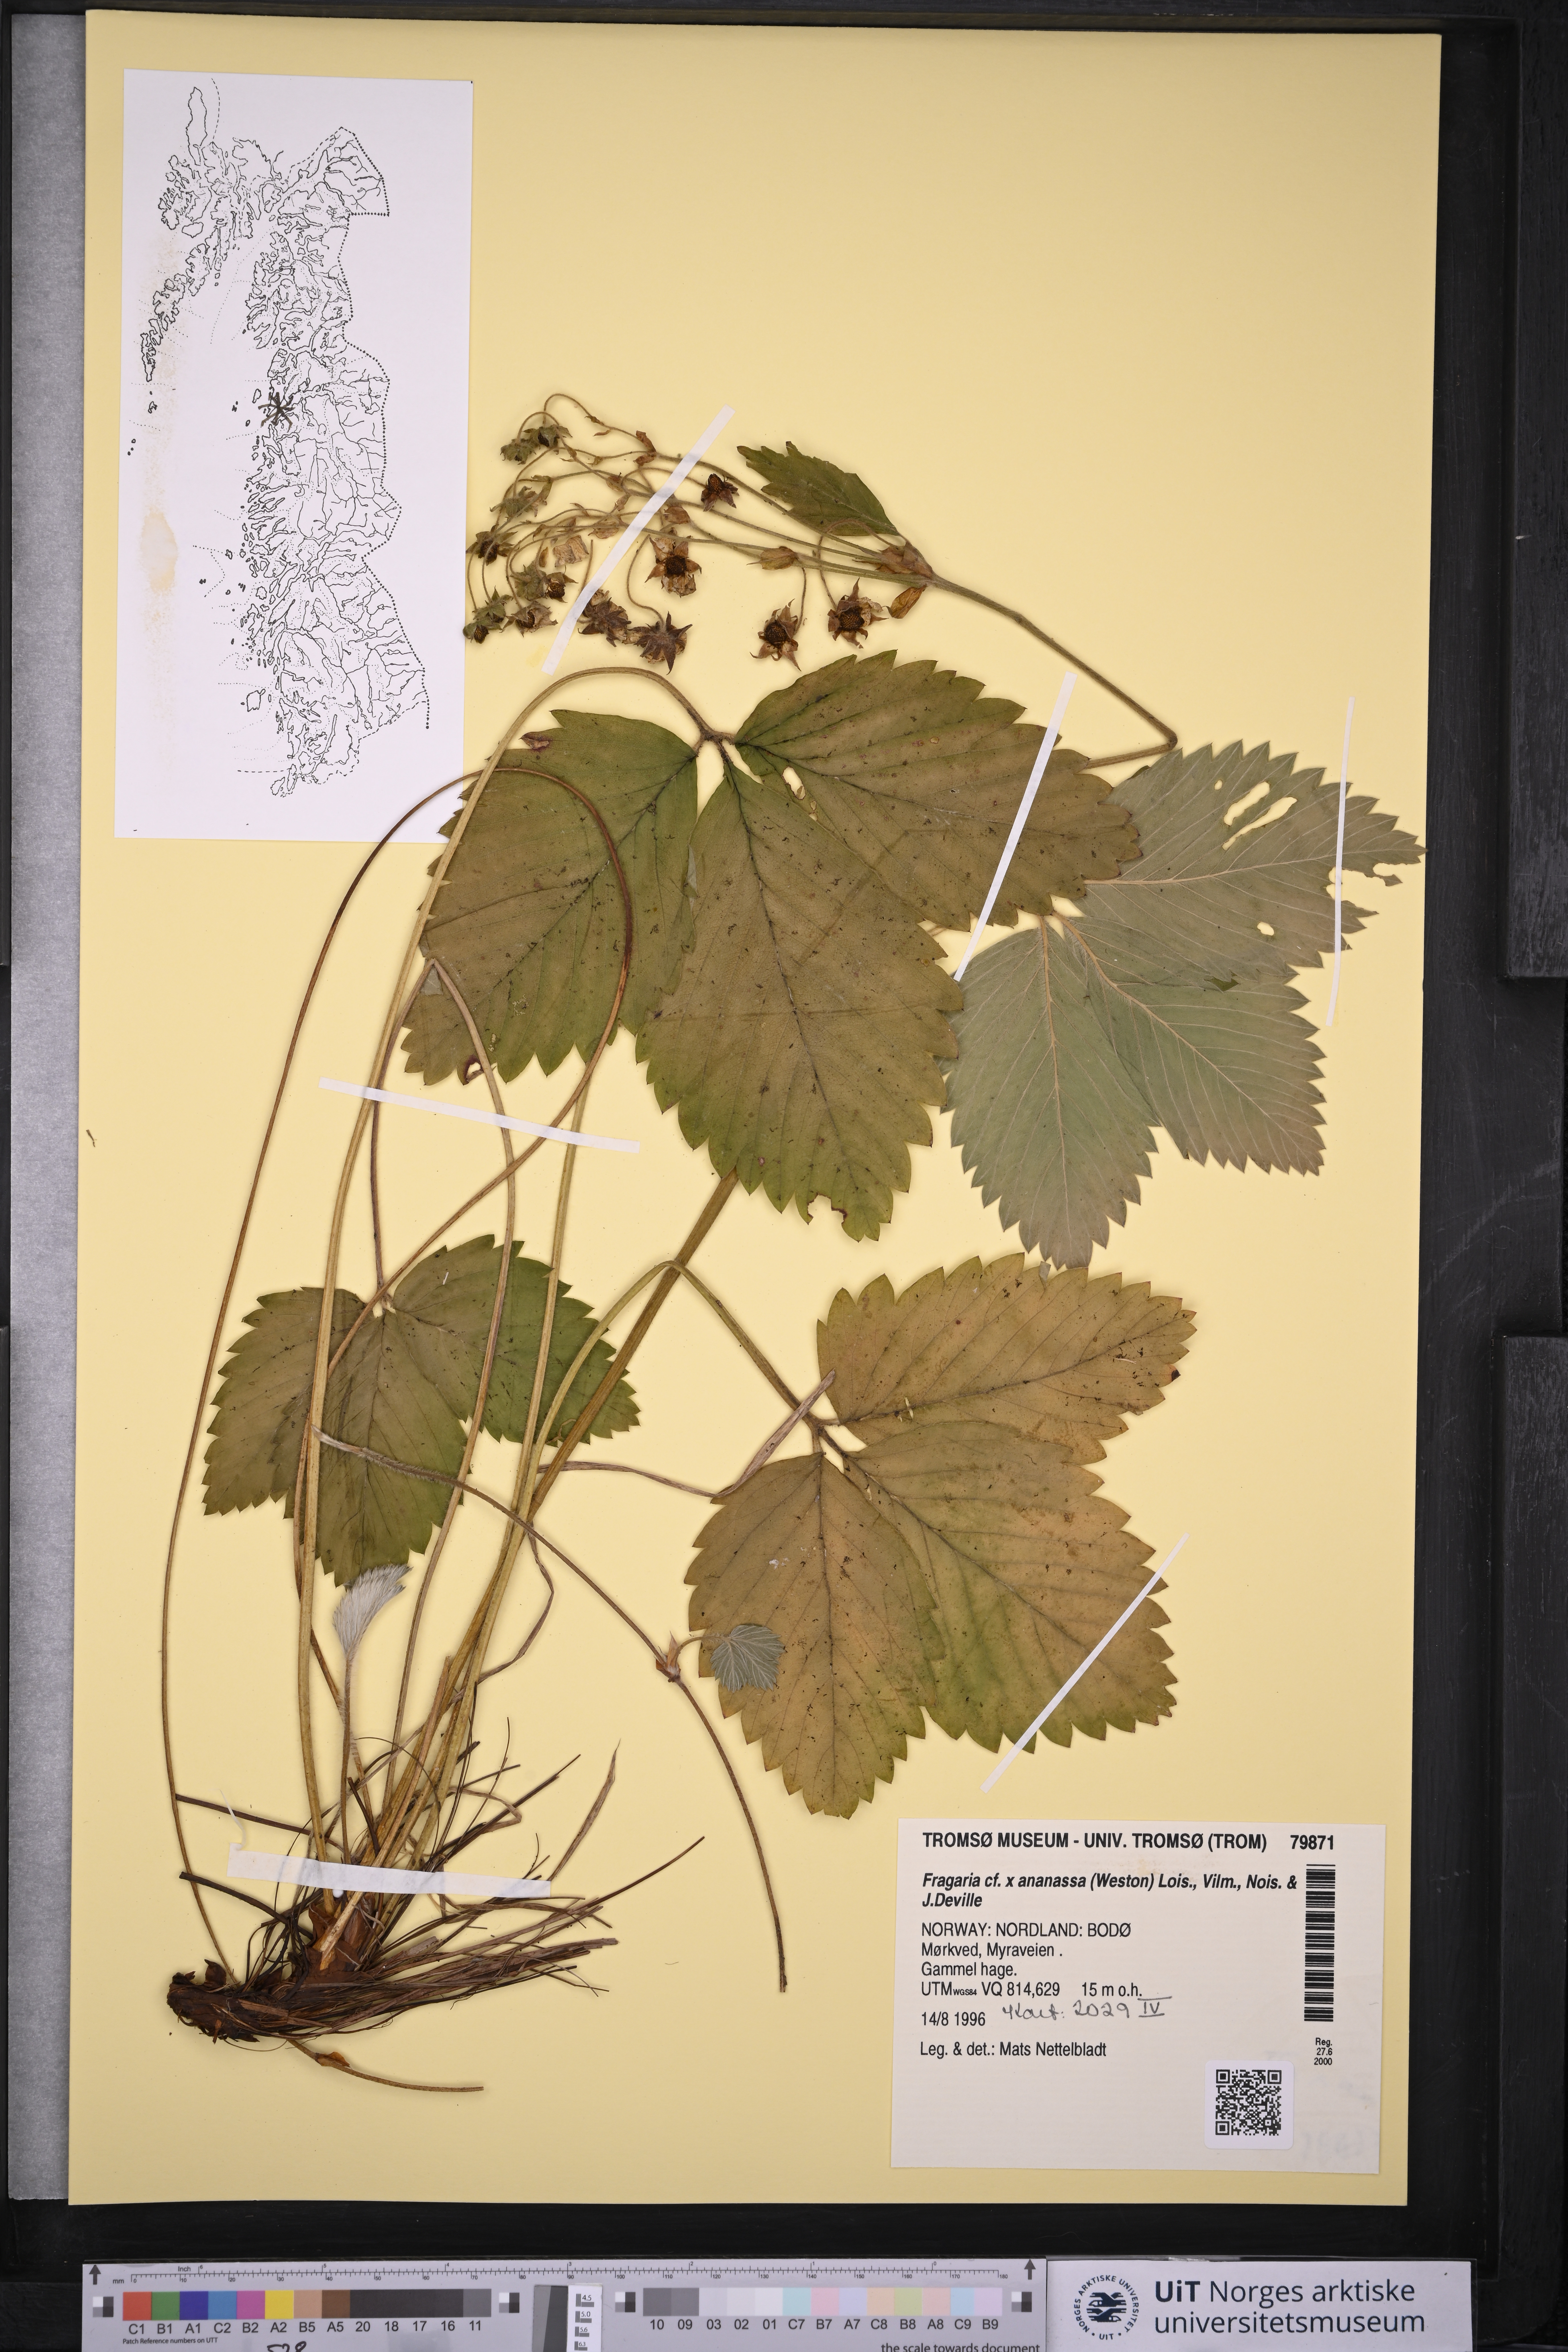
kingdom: Plantae
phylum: Tracheophyta
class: Magnoliopsida
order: Rosales
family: Rosaceae
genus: Fragaria
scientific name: Fragaria ananassa
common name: Garden strawberry
